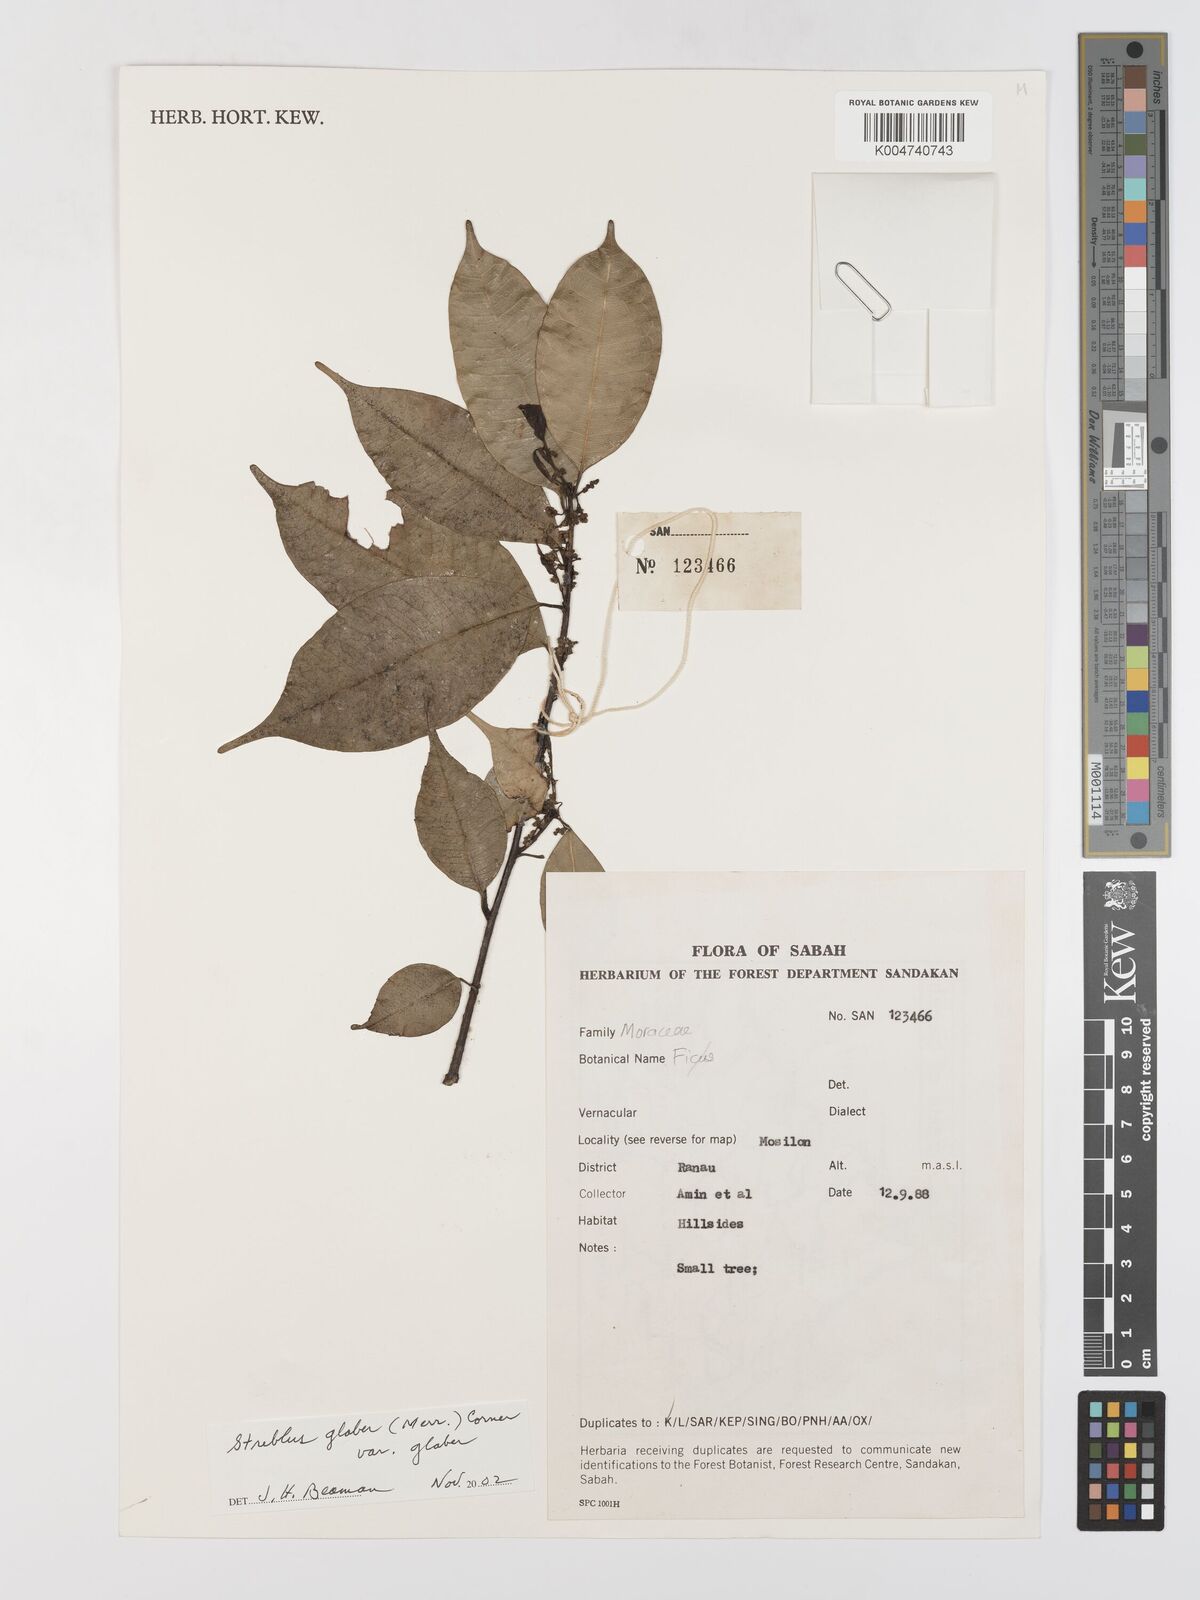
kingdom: Plantae
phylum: Tracheophyta
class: Magnoliopsida
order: Rosales
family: Moraceae
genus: Paratrophis
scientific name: Paratrophis glabra
